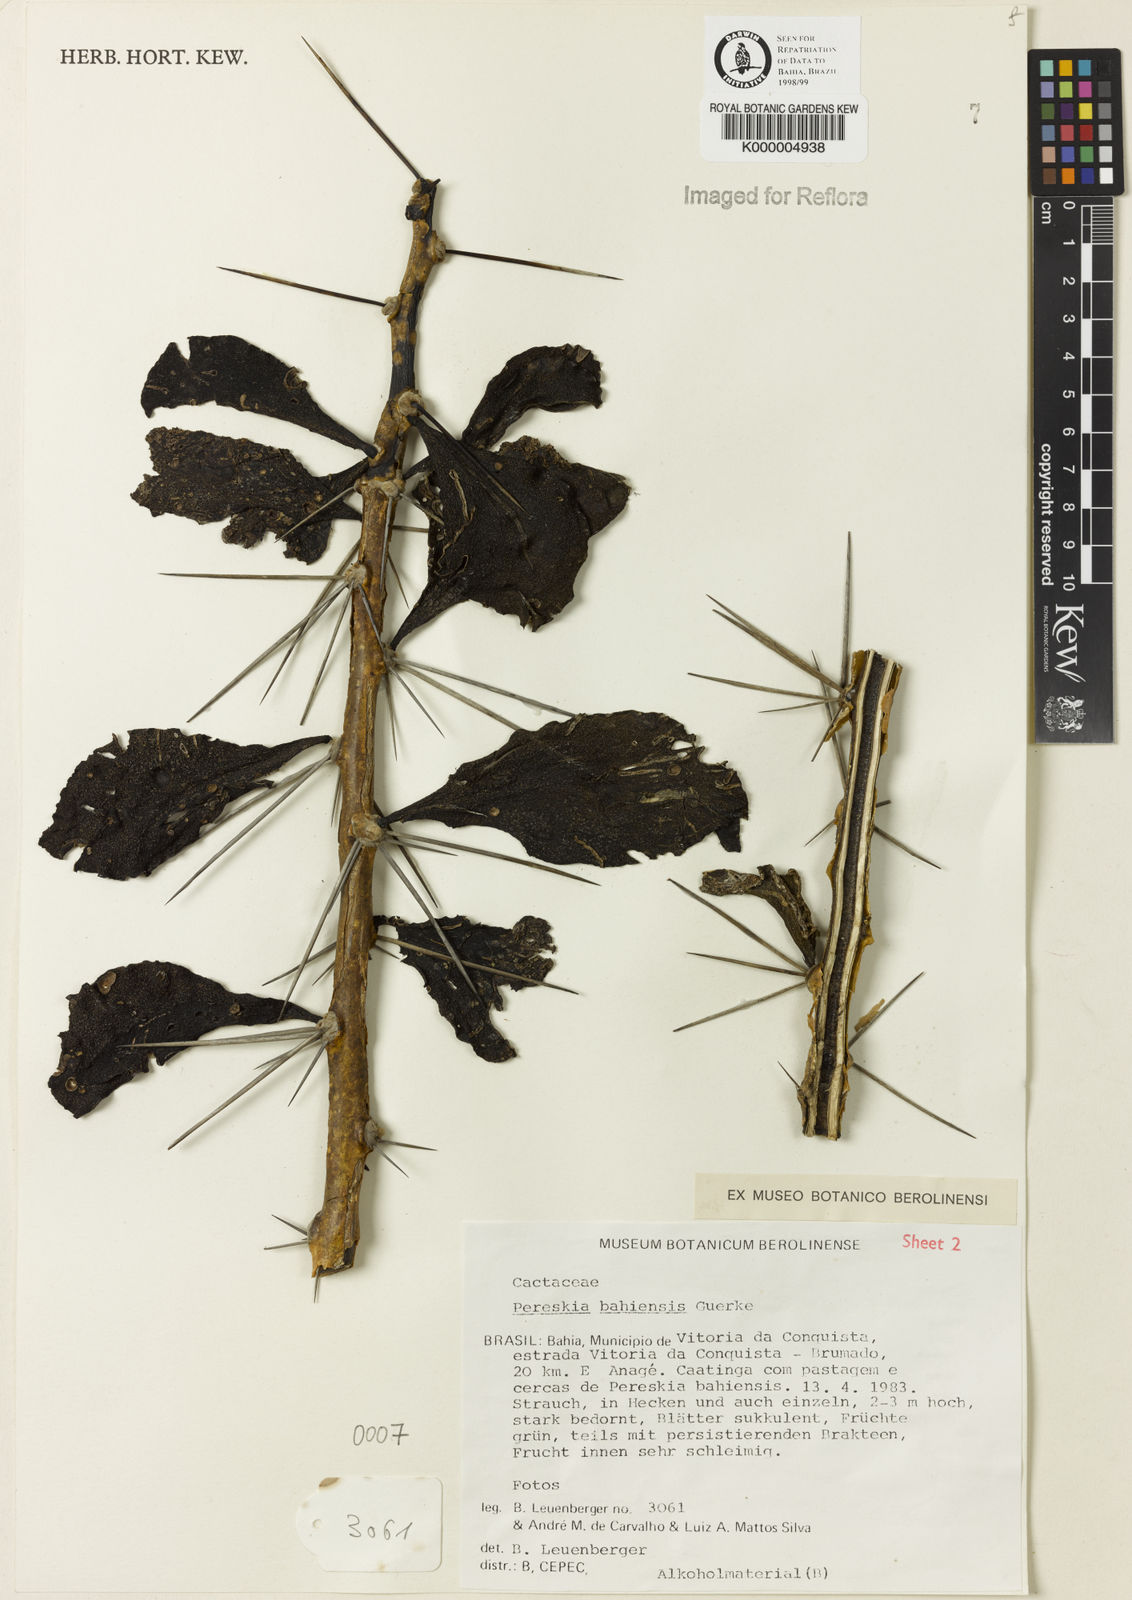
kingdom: Plantae
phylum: Tracheophyta
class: Magnoliopsida
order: Caryophyllales
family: Cactaceae
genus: Pereskia
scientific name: Pereskia
